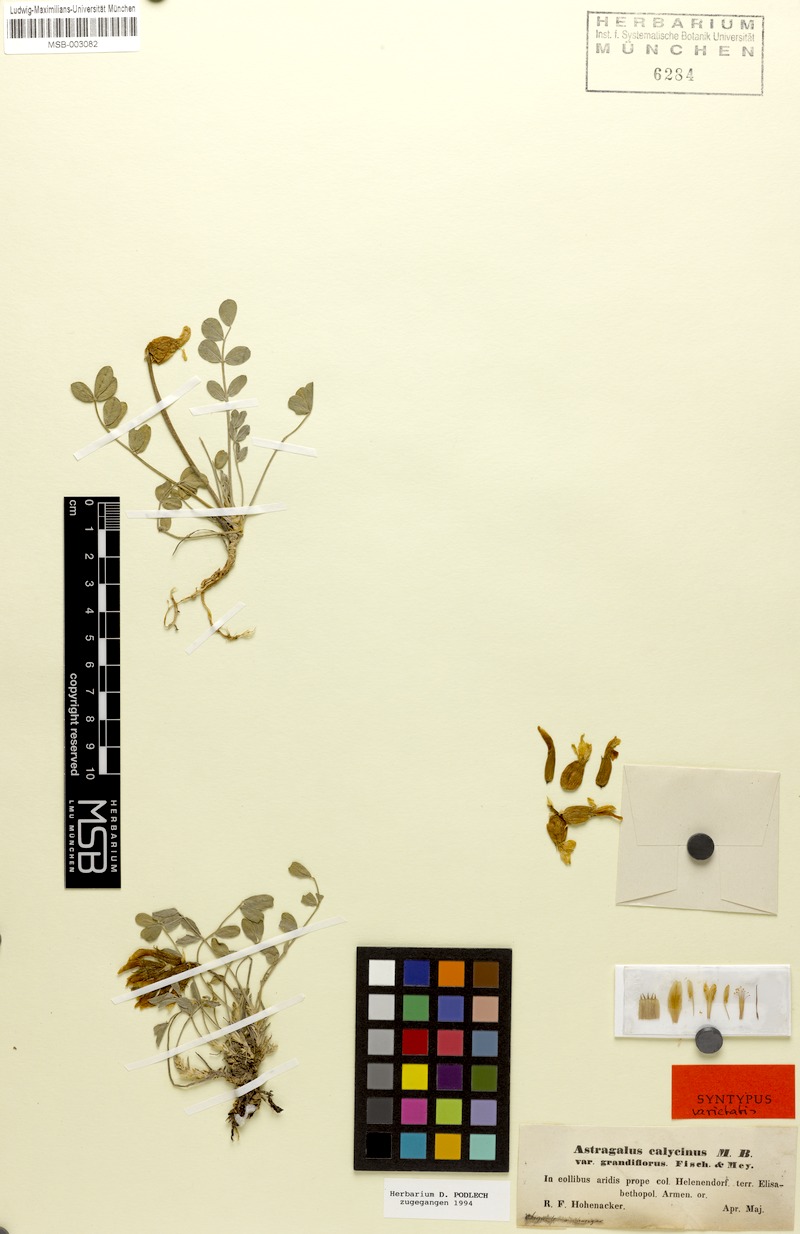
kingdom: Plantae
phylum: Tracheophyta
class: Magnoliopsida
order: Fabales
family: Fabaceae
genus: Astragalus
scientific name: Astragalus calycinus
